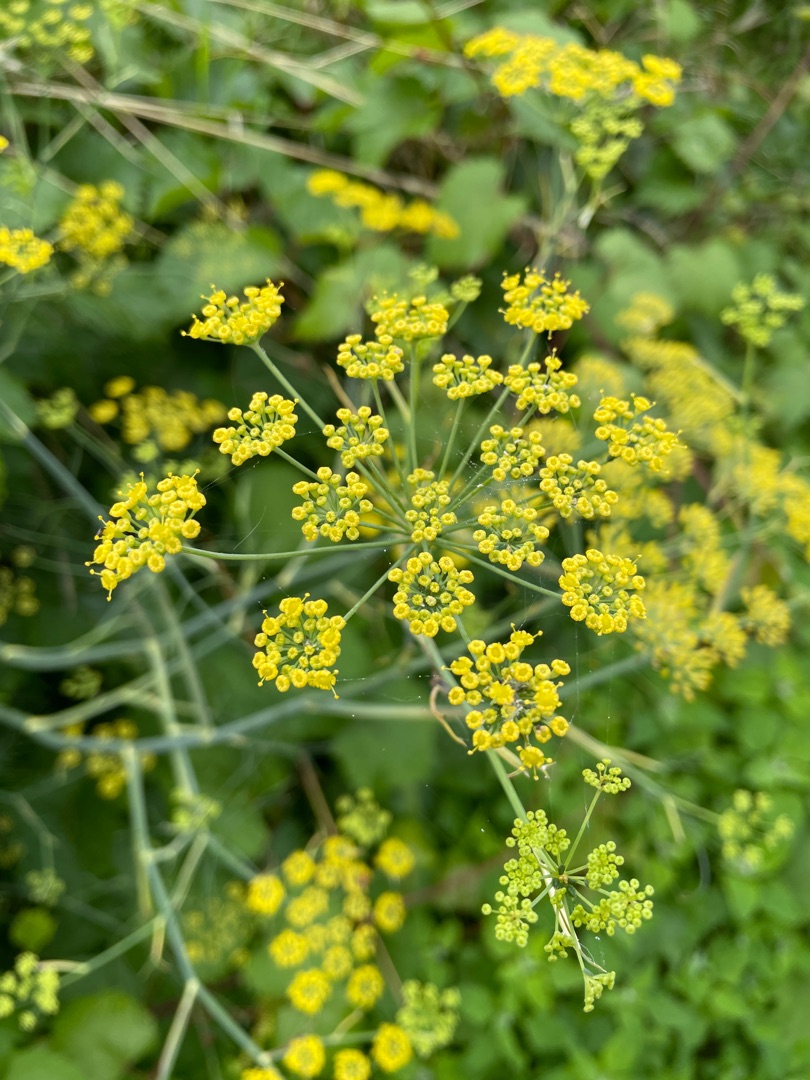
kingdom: Plantae
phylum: Tracheophyta
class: Magnoliopsida
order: Apiales
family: Apiaceae
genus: Foeniculum
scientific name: Foeniculum vulgare
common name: Fennikel
